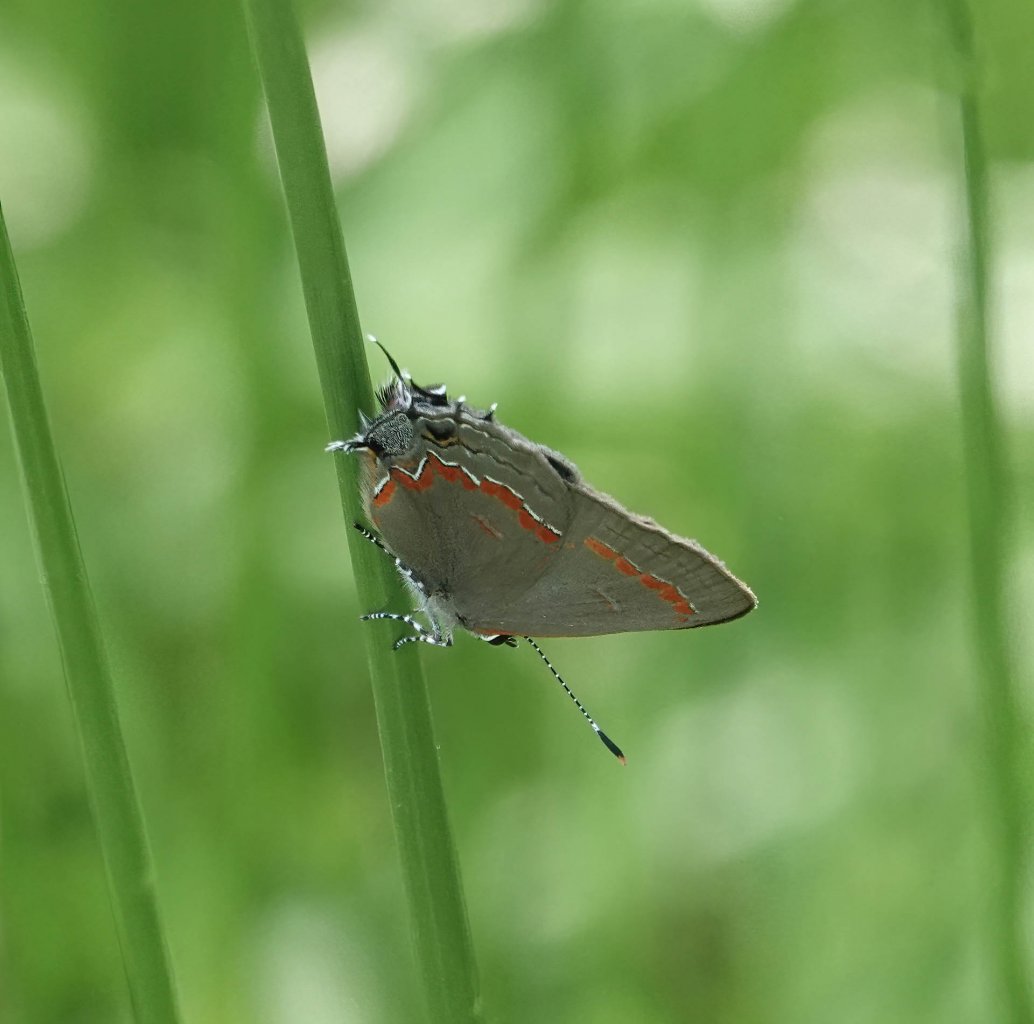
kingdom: Animalia
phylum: Arthropoda
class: Insecta
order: Lepidoptera
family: Lycaenidae
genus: Calycopis
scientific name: Calycopis cecrops
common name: Red-banded Hairstreak
